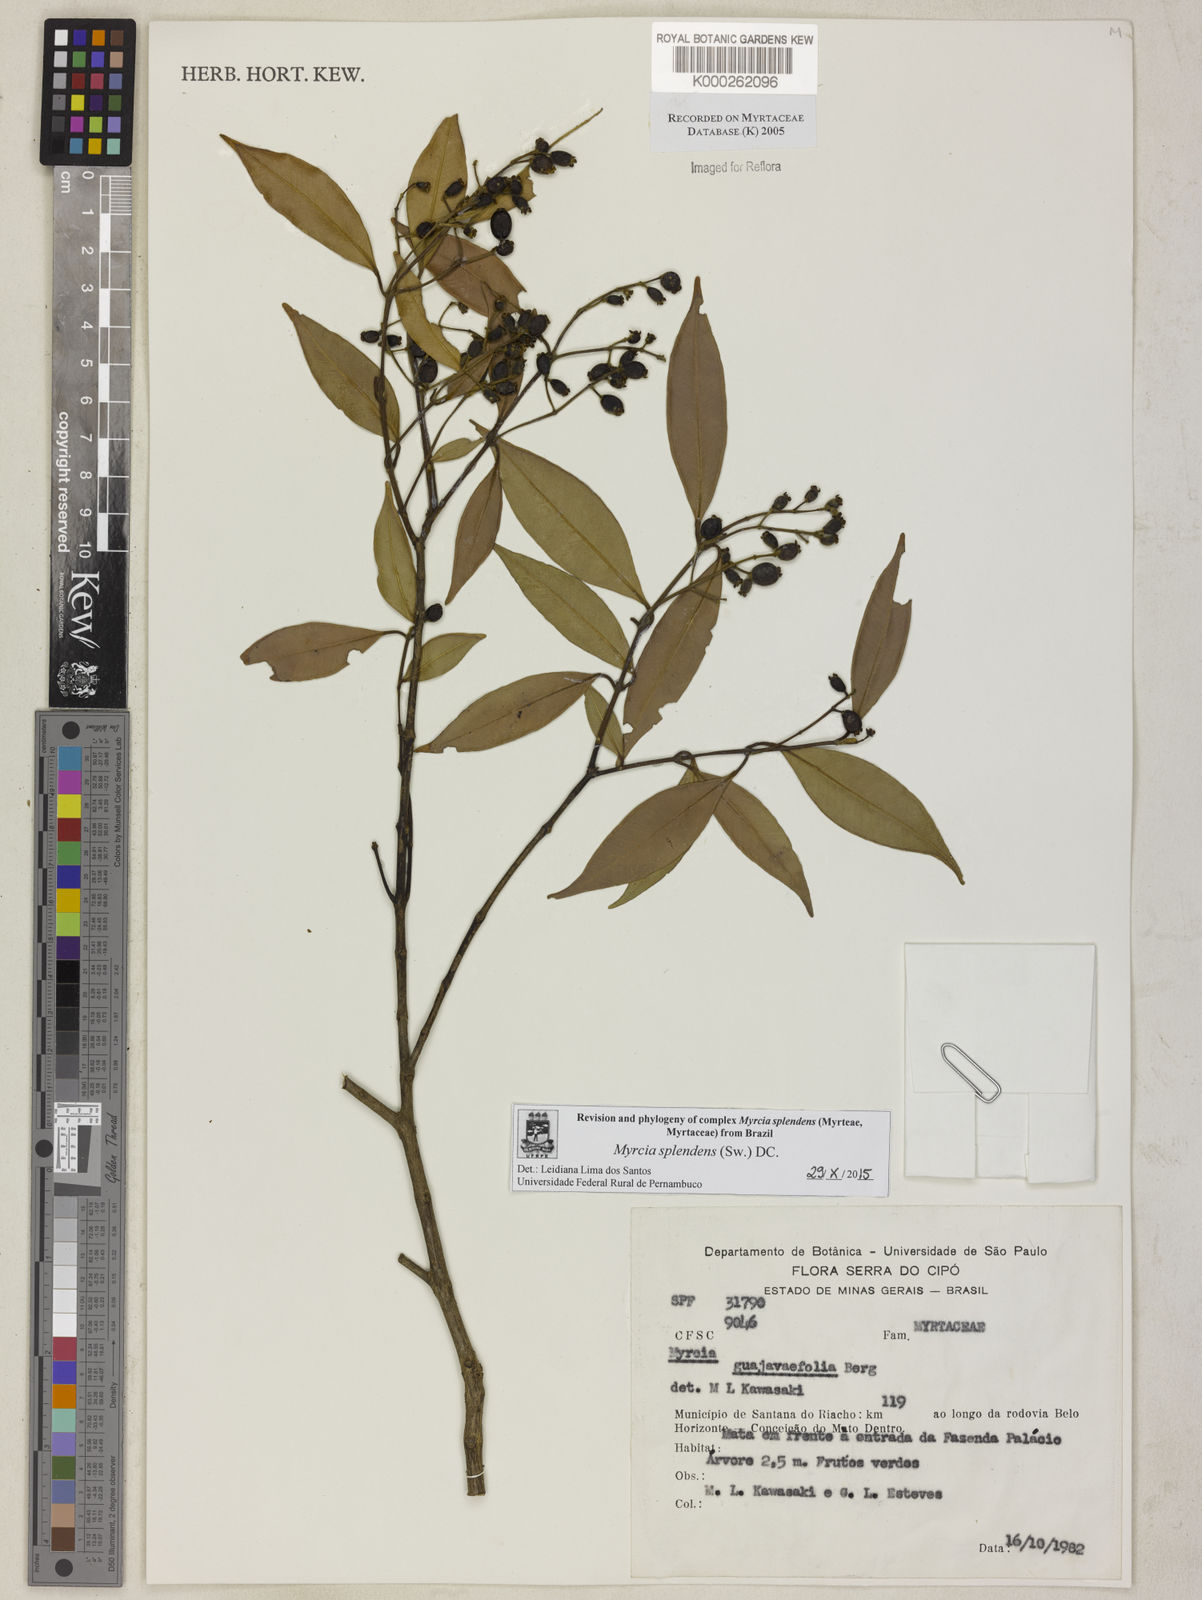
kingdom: Plantae
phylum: Tracheophyta
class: Magnoliopsida
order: Myrtales
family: Myrtaceae
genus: Myrcia
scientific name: Myrcia splendens
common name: Surinam cherry
